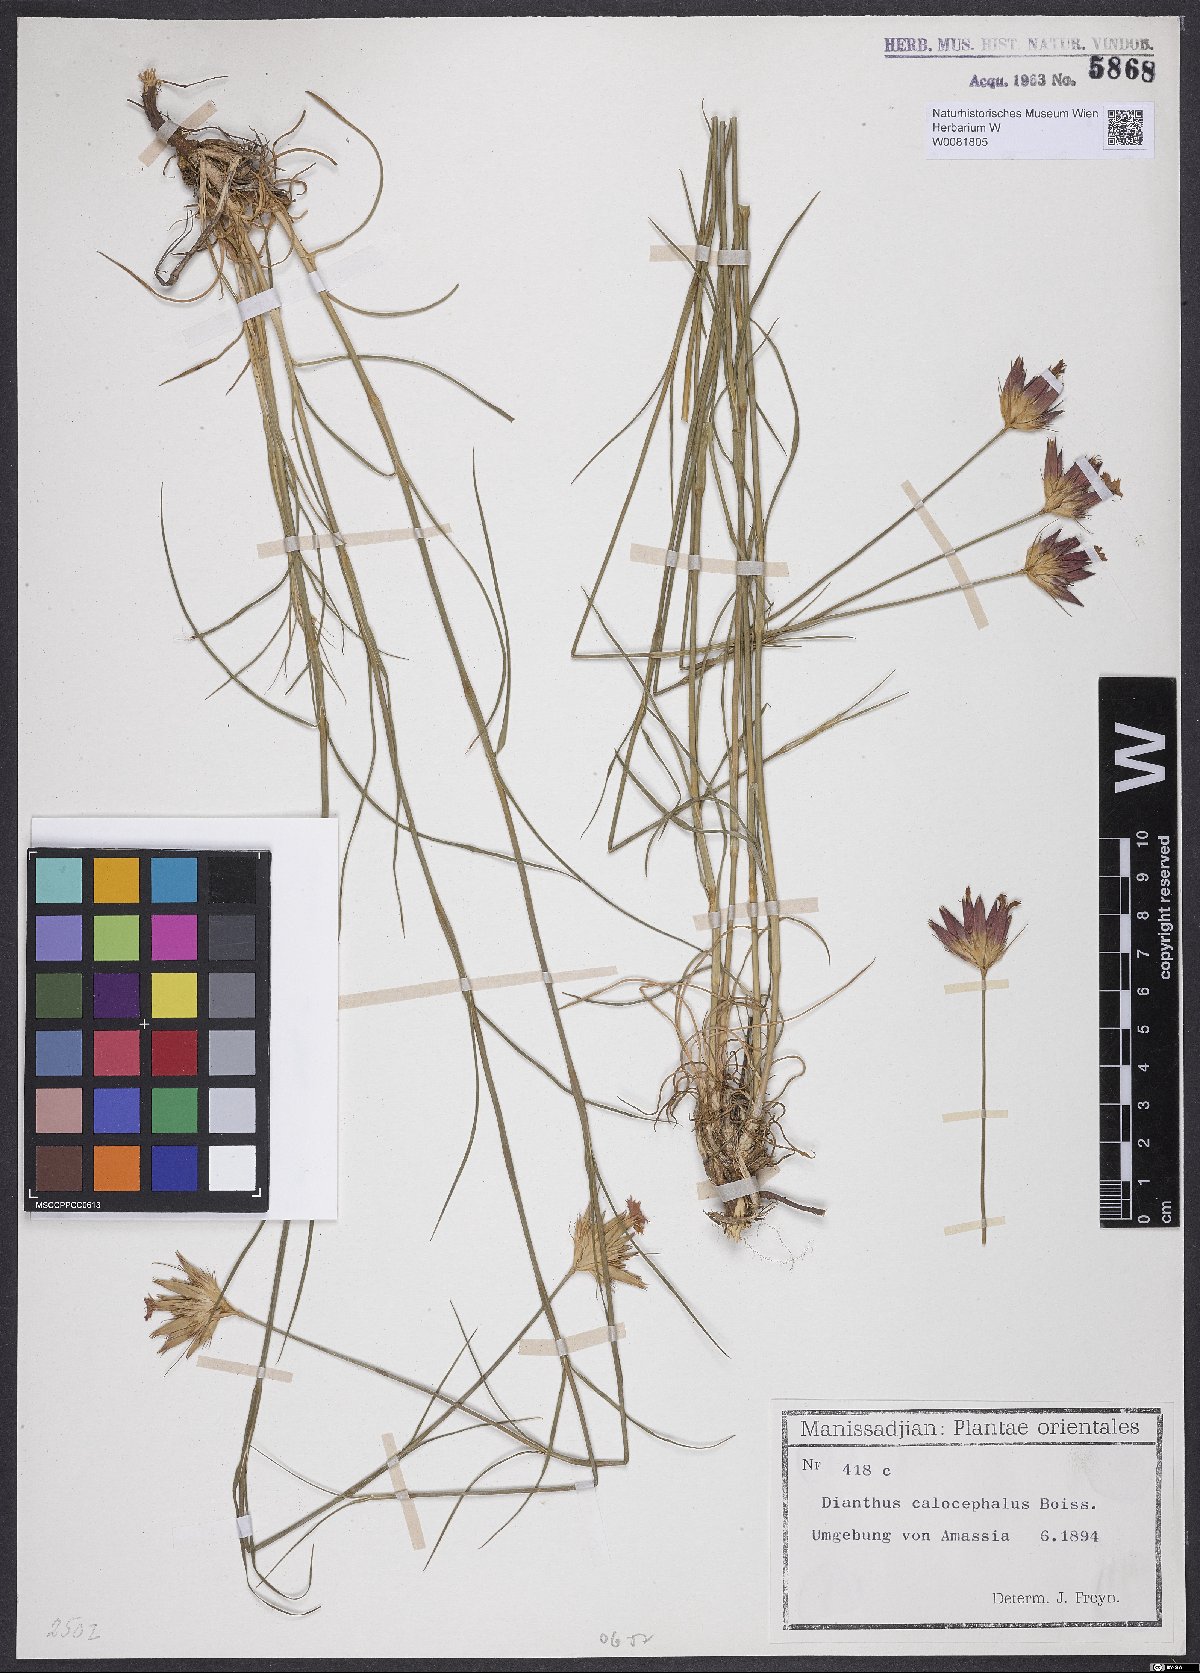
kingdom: Plantae
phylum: Tracheophyta
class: Magnoliopsida
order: Caryophyllales
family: Caryophyllaceae
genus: Dianthus
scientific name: Dianthus cruentus
